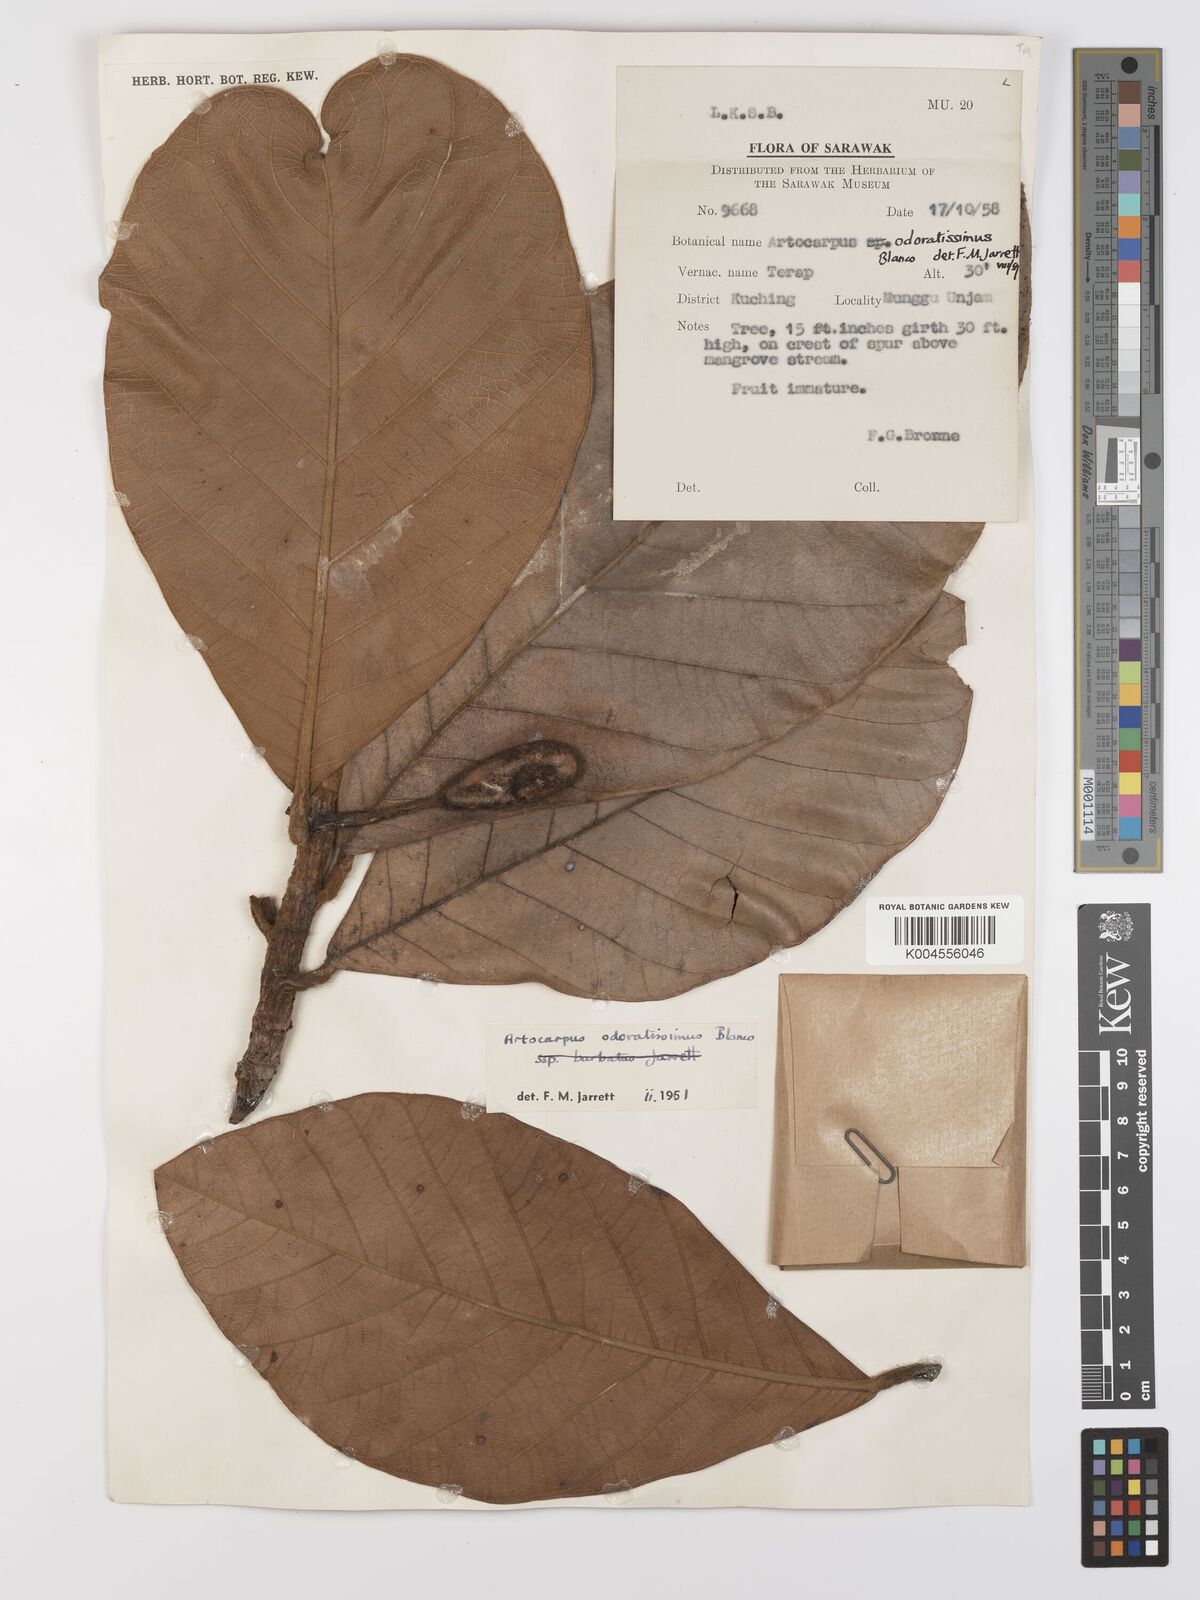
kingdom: Plantae
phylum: Tracheophyta
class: Magnoliopsida
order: Rosales
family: Moraceae
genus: Artocarpus
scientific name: Artocarpus odoratissimus
